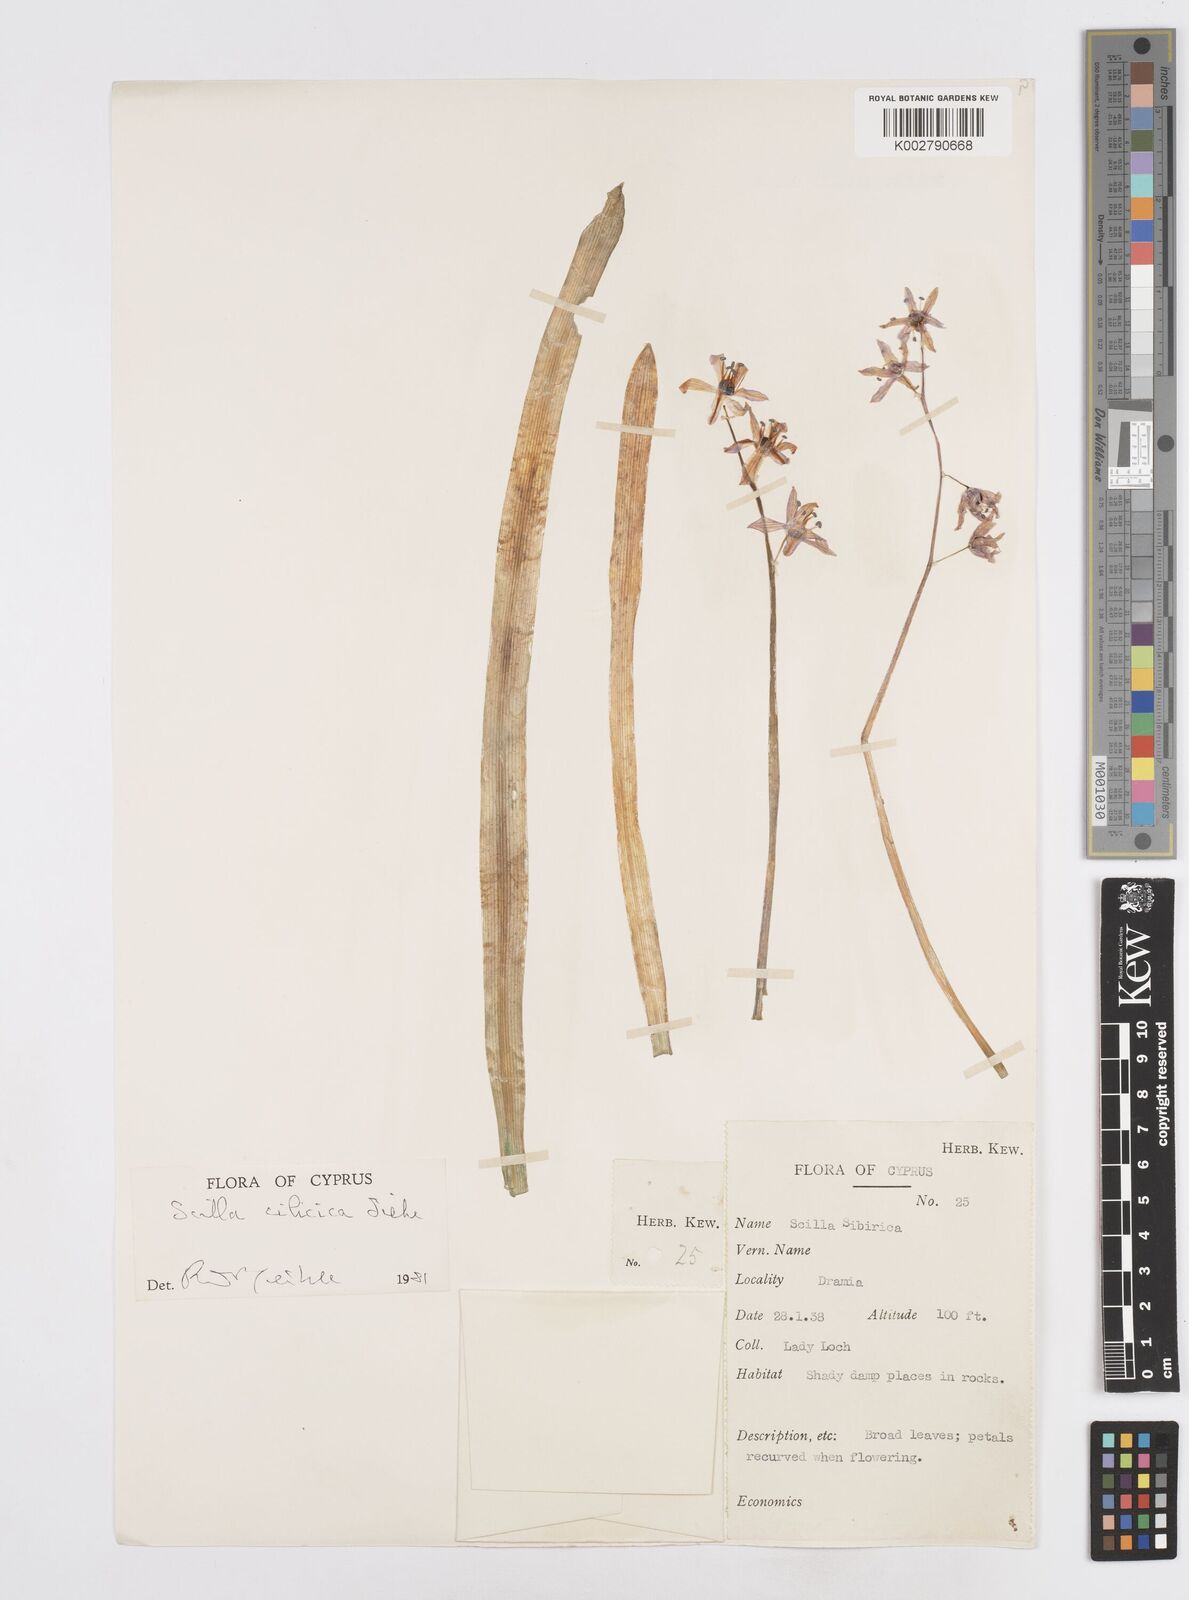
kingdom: Plantae
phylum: Tracheophyta
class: Liliopsida
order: Asparagales
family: Asparagaceae
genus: Scilla
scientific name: Scilla siberica
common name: Siberian squill
